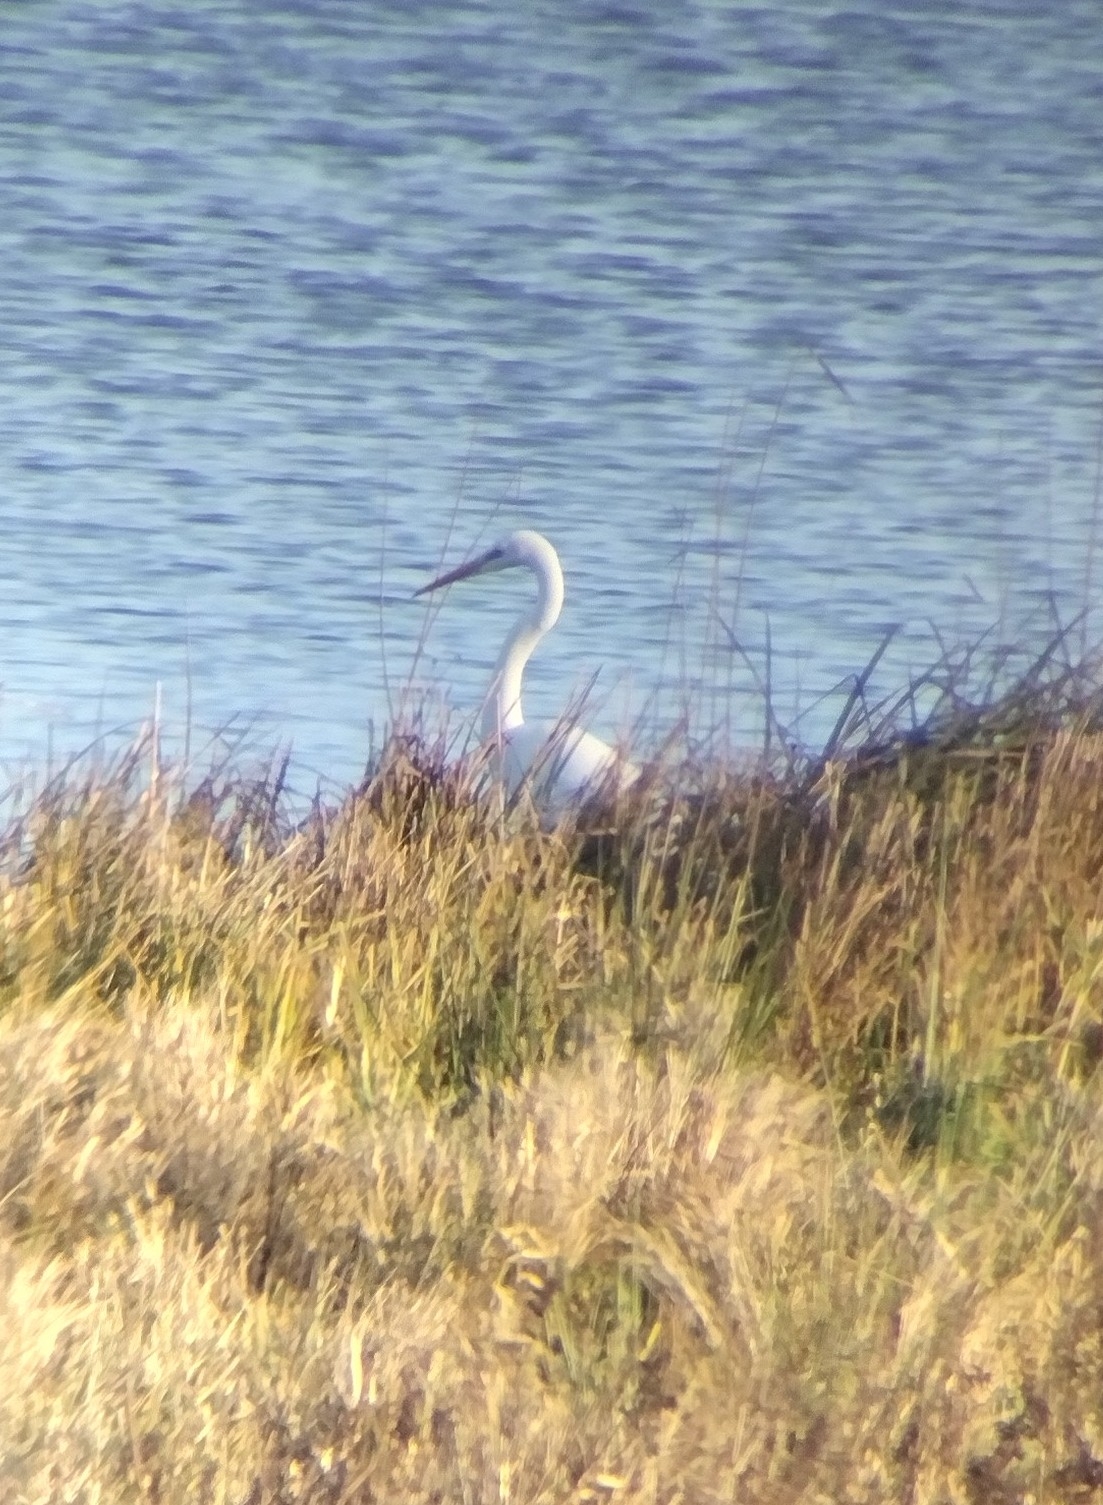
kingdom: Animalia
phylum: Chordata
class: Aves
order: Pelecaniformes
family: Ardeidae
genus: Ardea
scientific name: Ardea alba
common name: Sølvhejre
